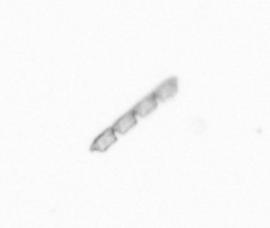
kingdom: Chromista
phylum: Ochrophyta
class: Bacillariophyceae
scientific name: Bacillariophyceae
